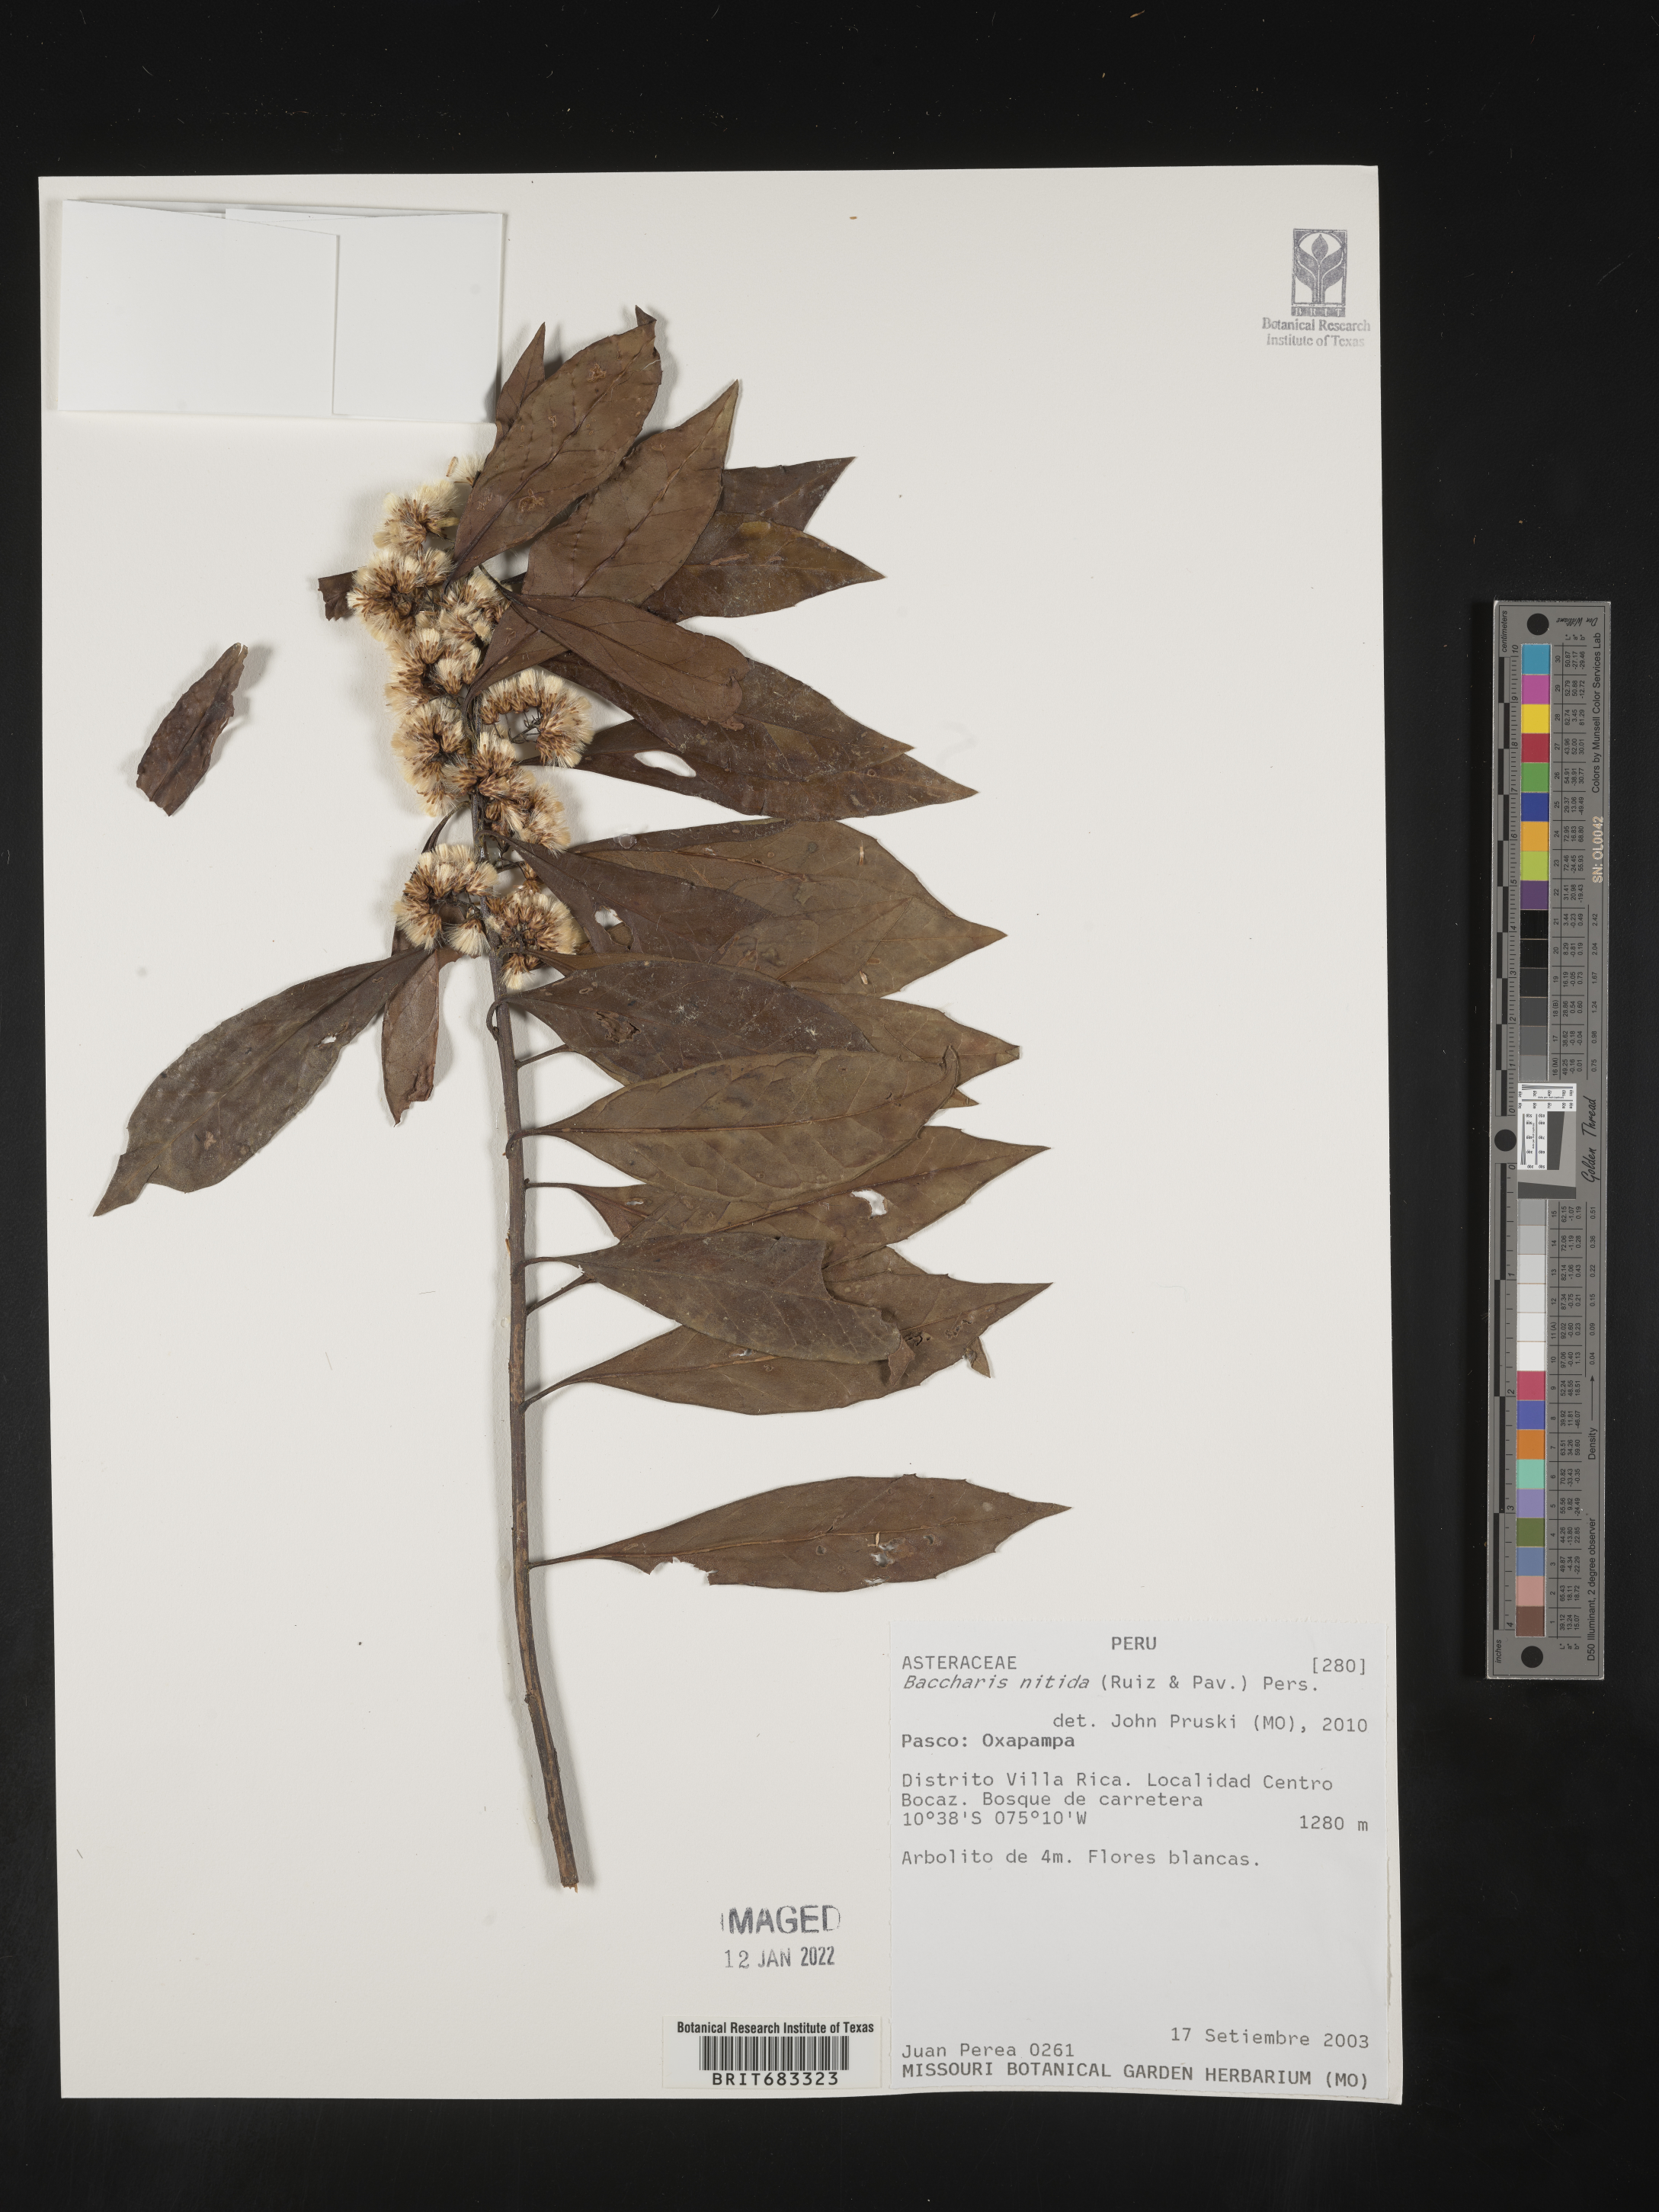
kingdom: Plantae
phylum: Tracheophyta
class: Magnoliopsida
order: Asterales
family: Asteraceae
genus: Baccharis
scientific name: Baccharis
